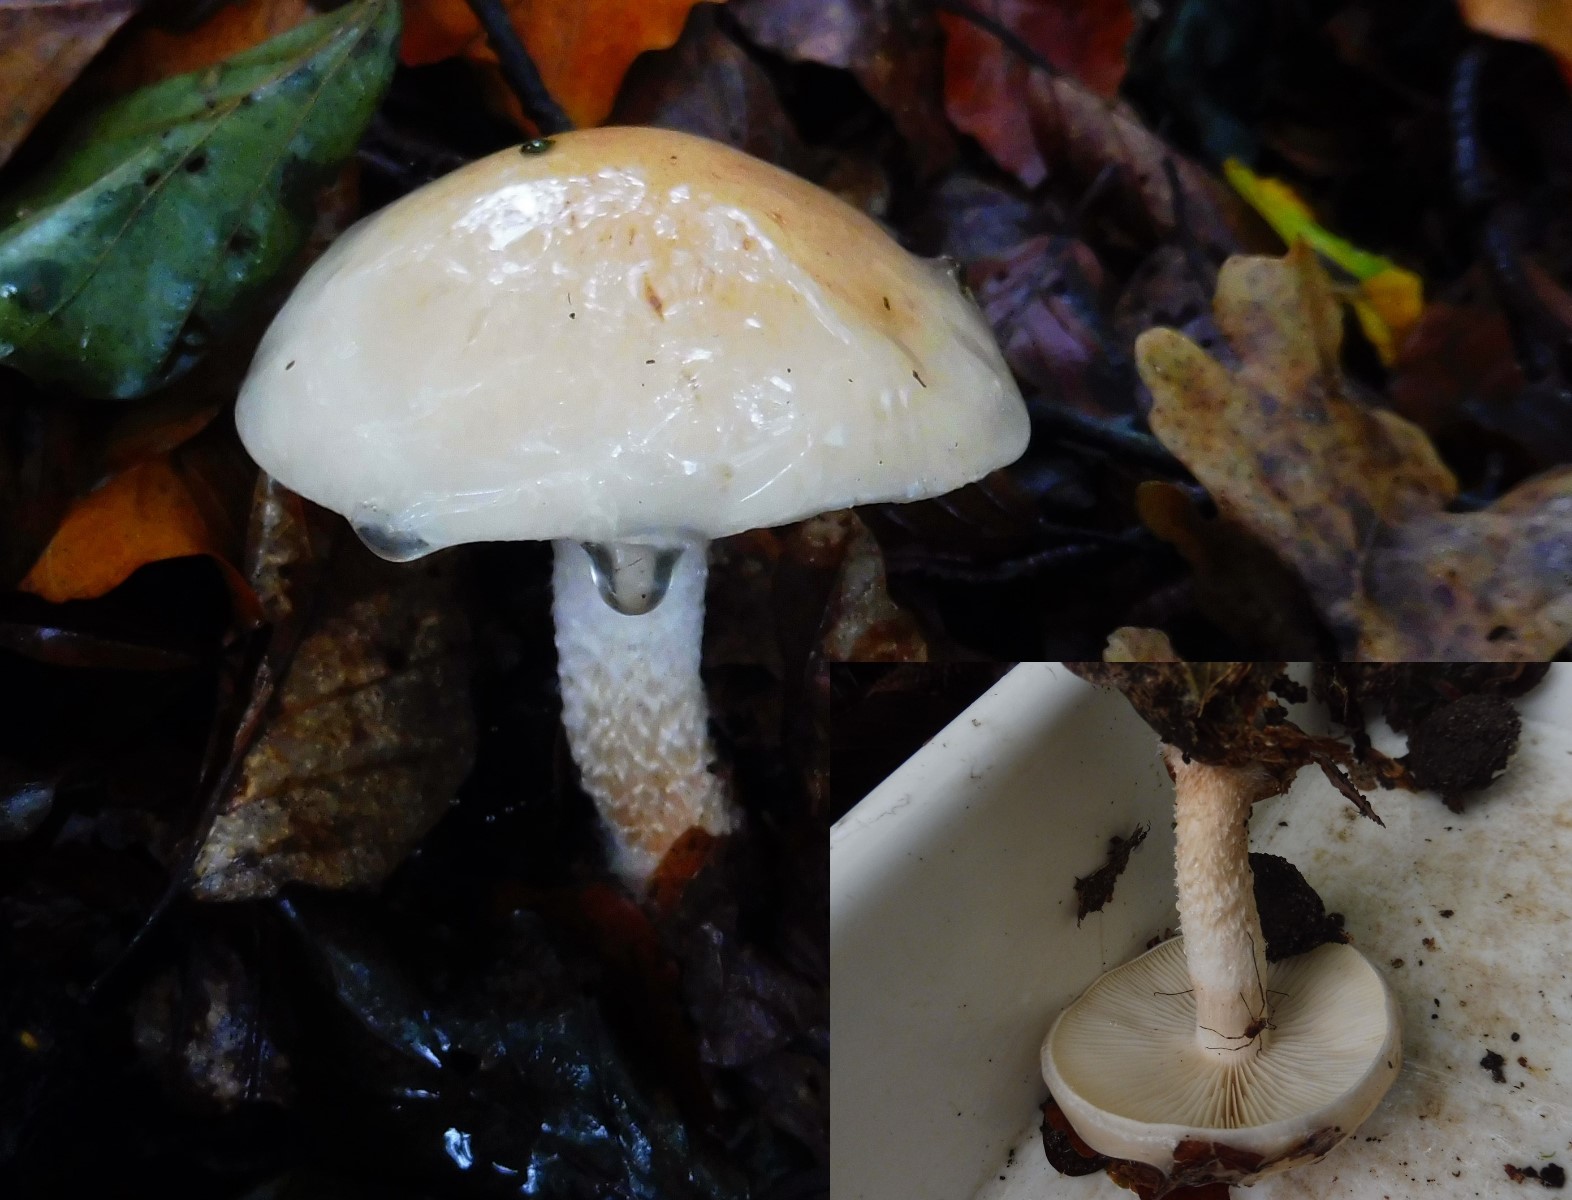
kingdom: Fungi
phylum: Basidiomycota
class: Agaricomycetes
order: Agaricales
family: Strophariaceae
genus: Pholiota
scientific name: Pholiota lenta
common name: løv-skælhat
